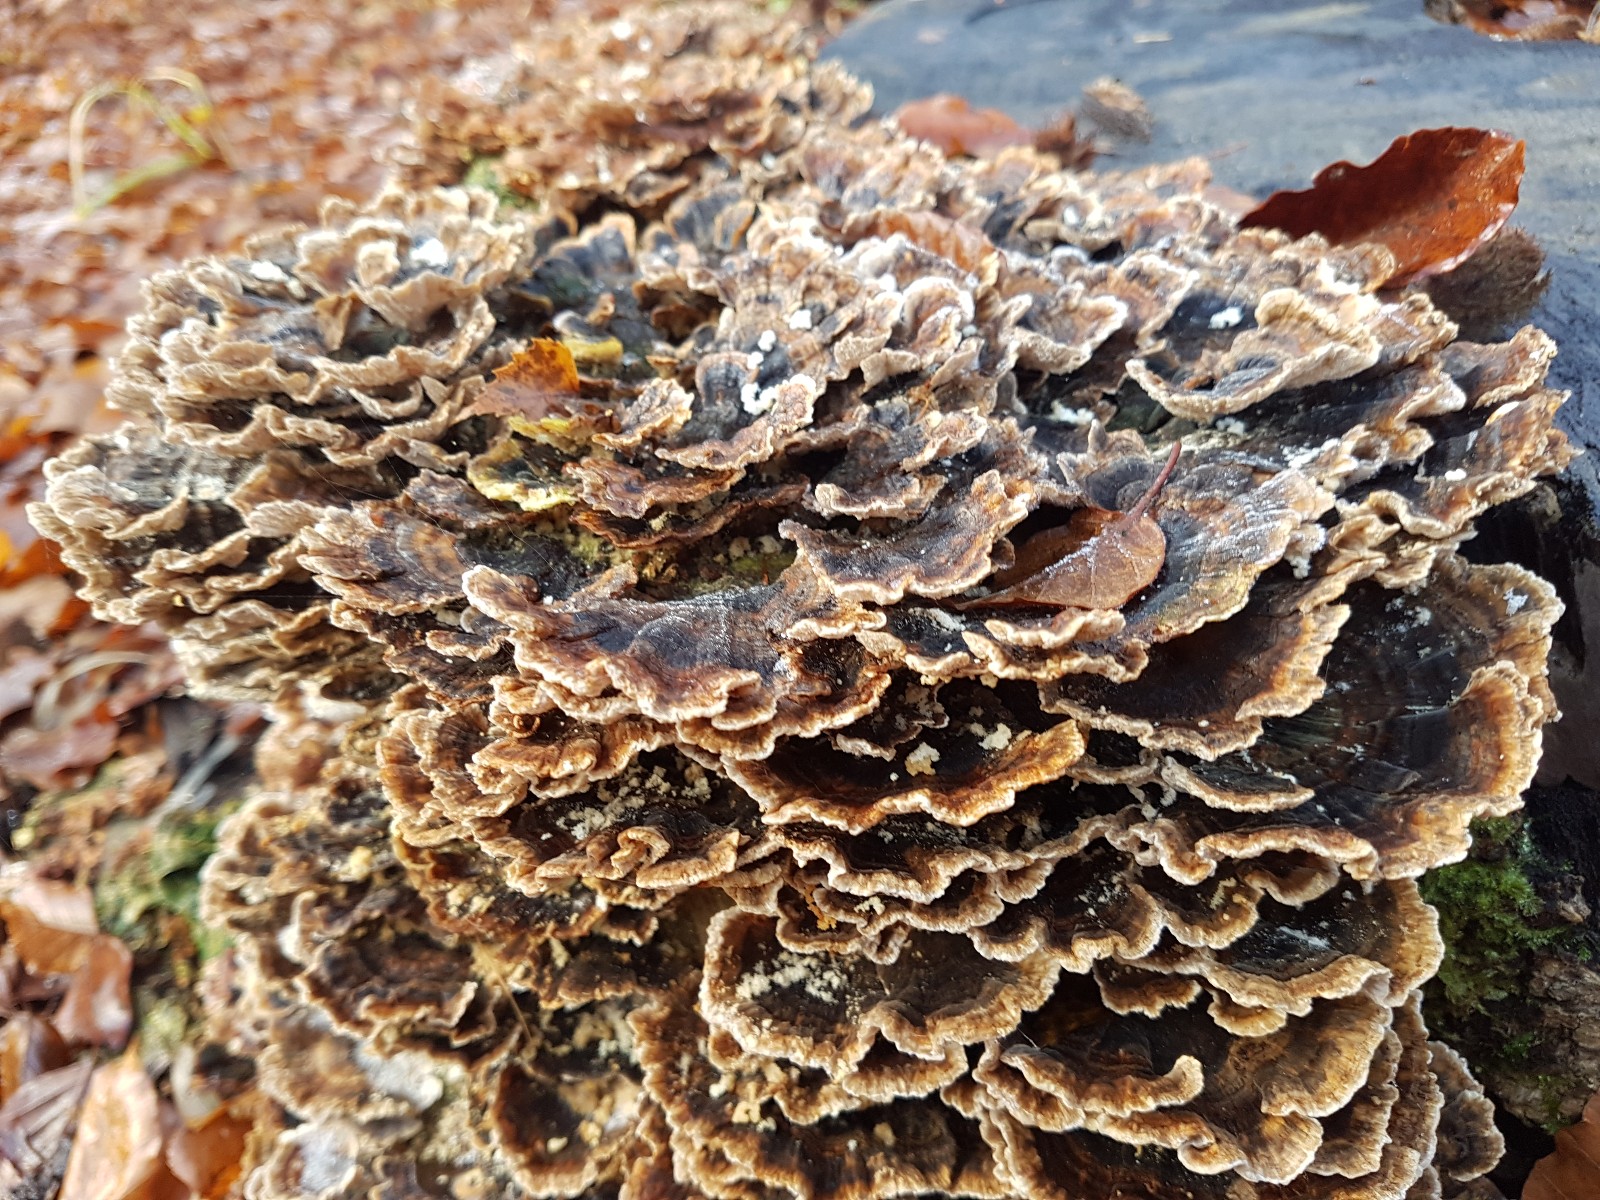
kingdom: Fungi
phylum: Basidiomycota
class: Agaricomycetes
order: Polyporales
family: Polyporaceae
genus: Trametes
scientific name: Trametes versicolor
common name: broget læderporesvamp
